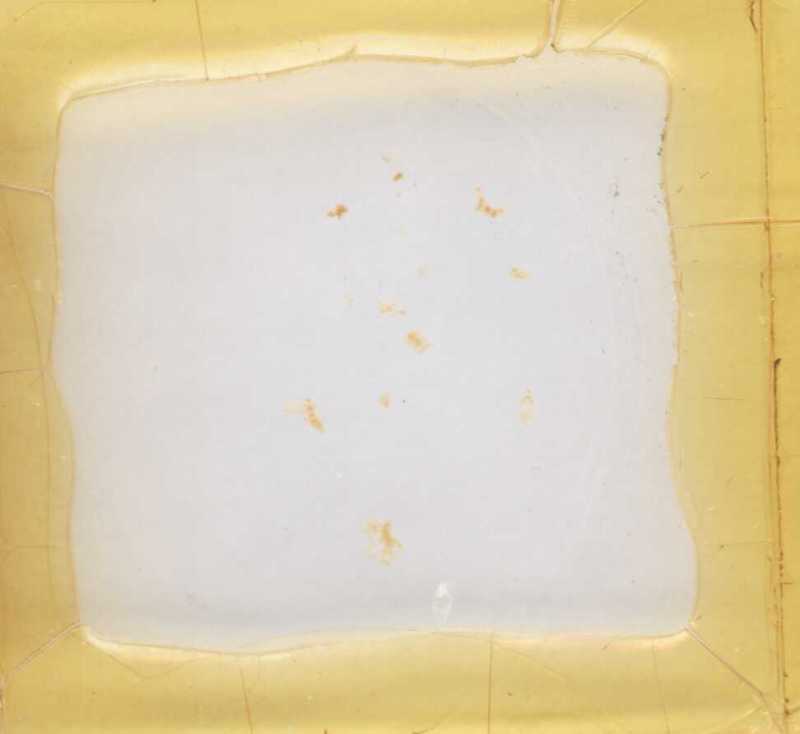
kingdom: Animalia
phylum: Arthropoda
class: Diplopoda
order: Glomerida
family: Glomeridae
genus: Gervaisia
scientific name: Gervaisia gibbula
